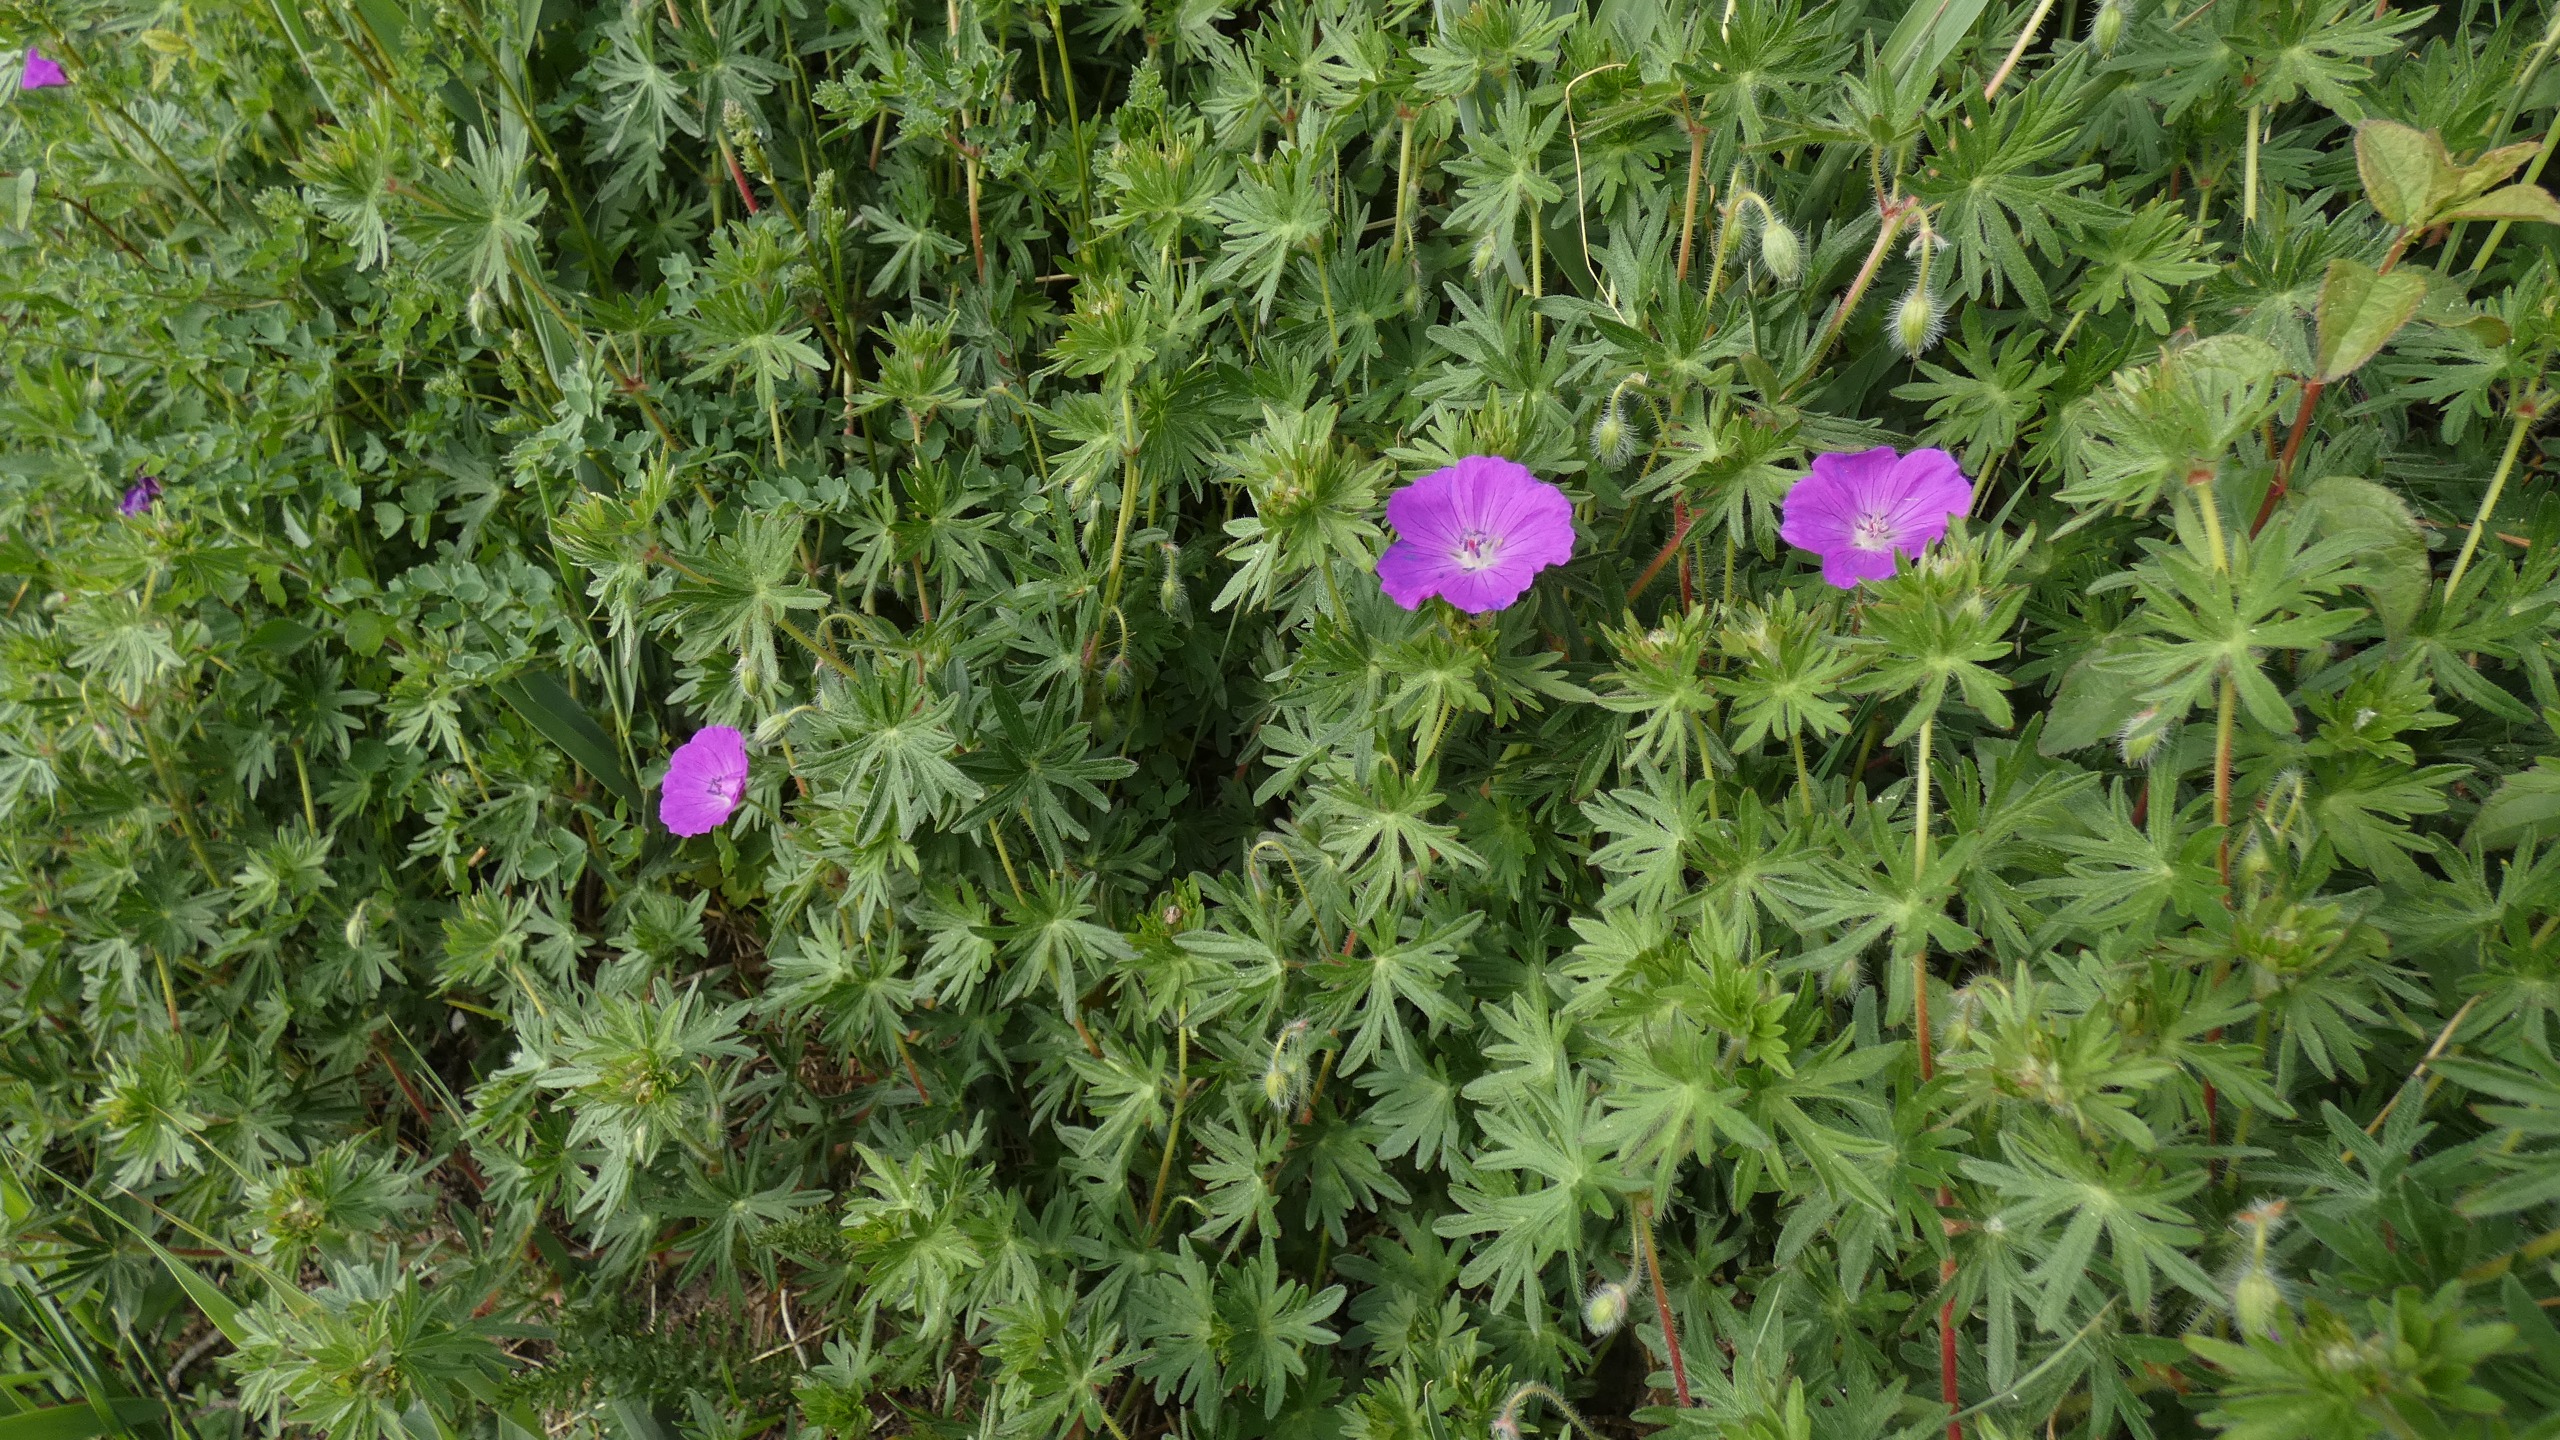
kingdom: Plantae
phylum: Tracheophyta
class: Magnoliopsida
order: Geraniales
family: Geraniaceae
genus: Geranium
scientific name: Geranium sanguineum
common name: Blodrød storkenæb
